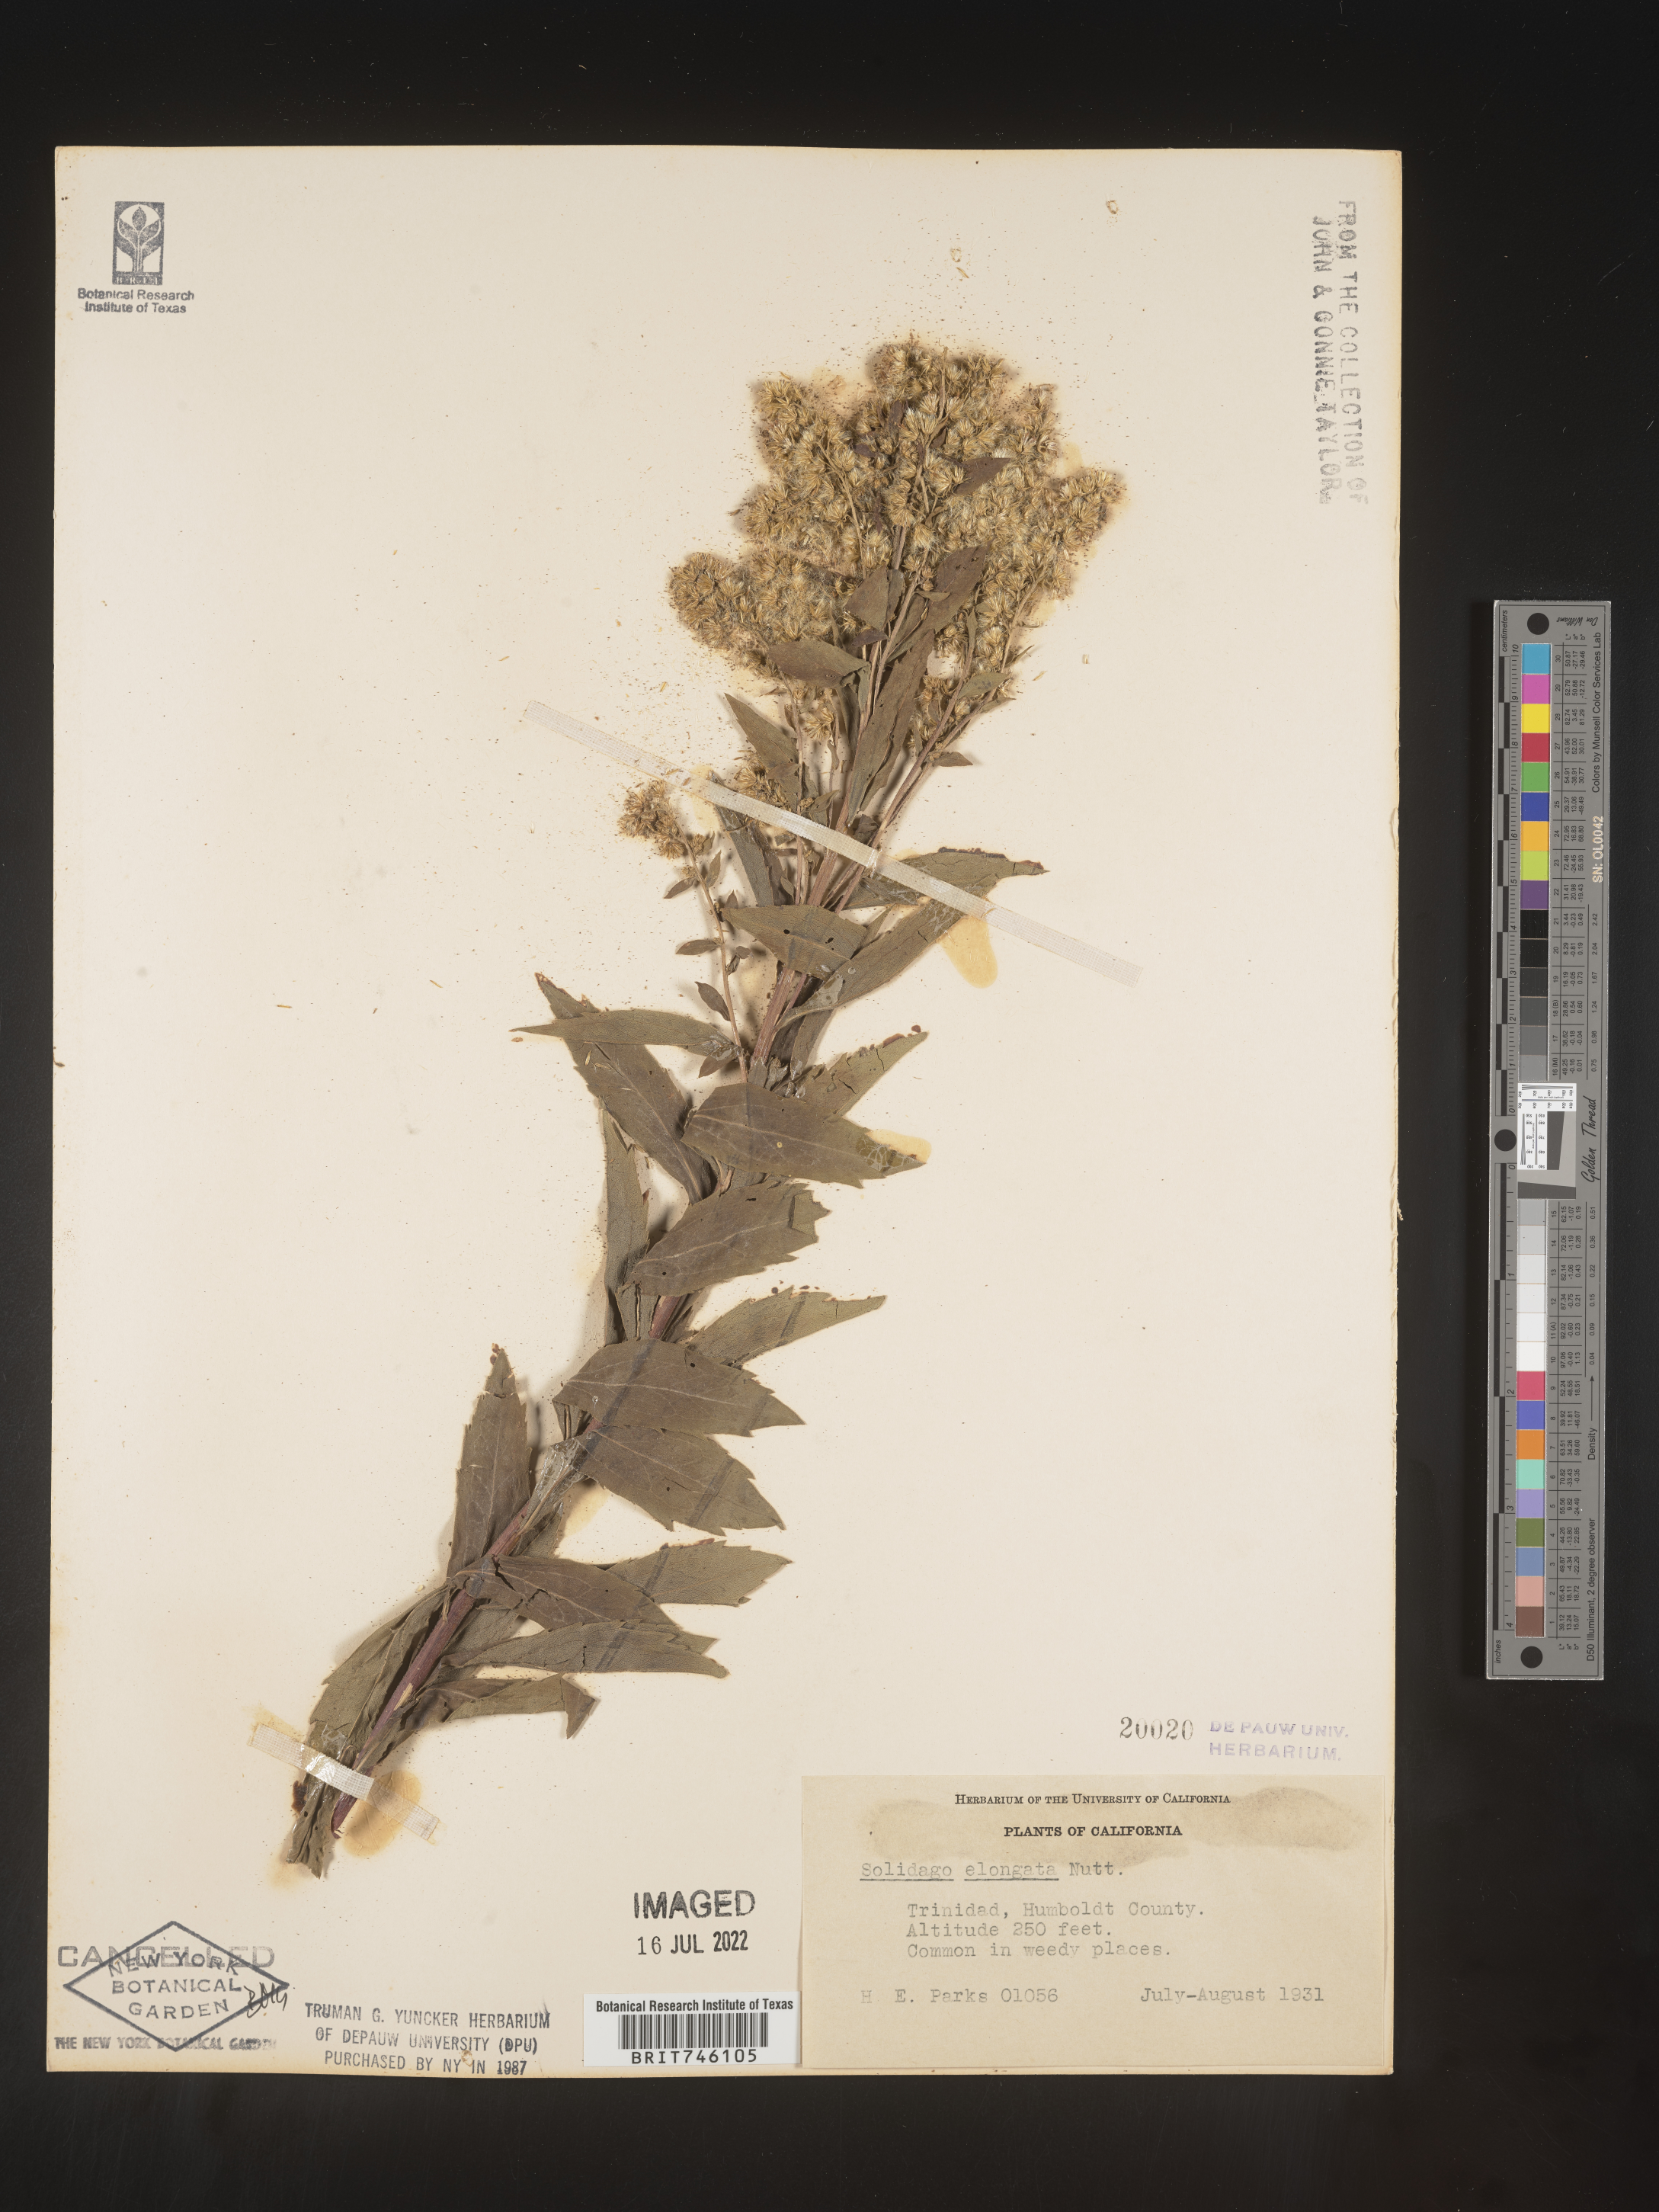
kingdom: Plantae
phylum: Tracheophyta
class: Magnoliopsida
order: Asterales
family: Asteraceae
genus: Solidago
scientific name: Solidago elongata
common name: Cascade canada goldenrod
